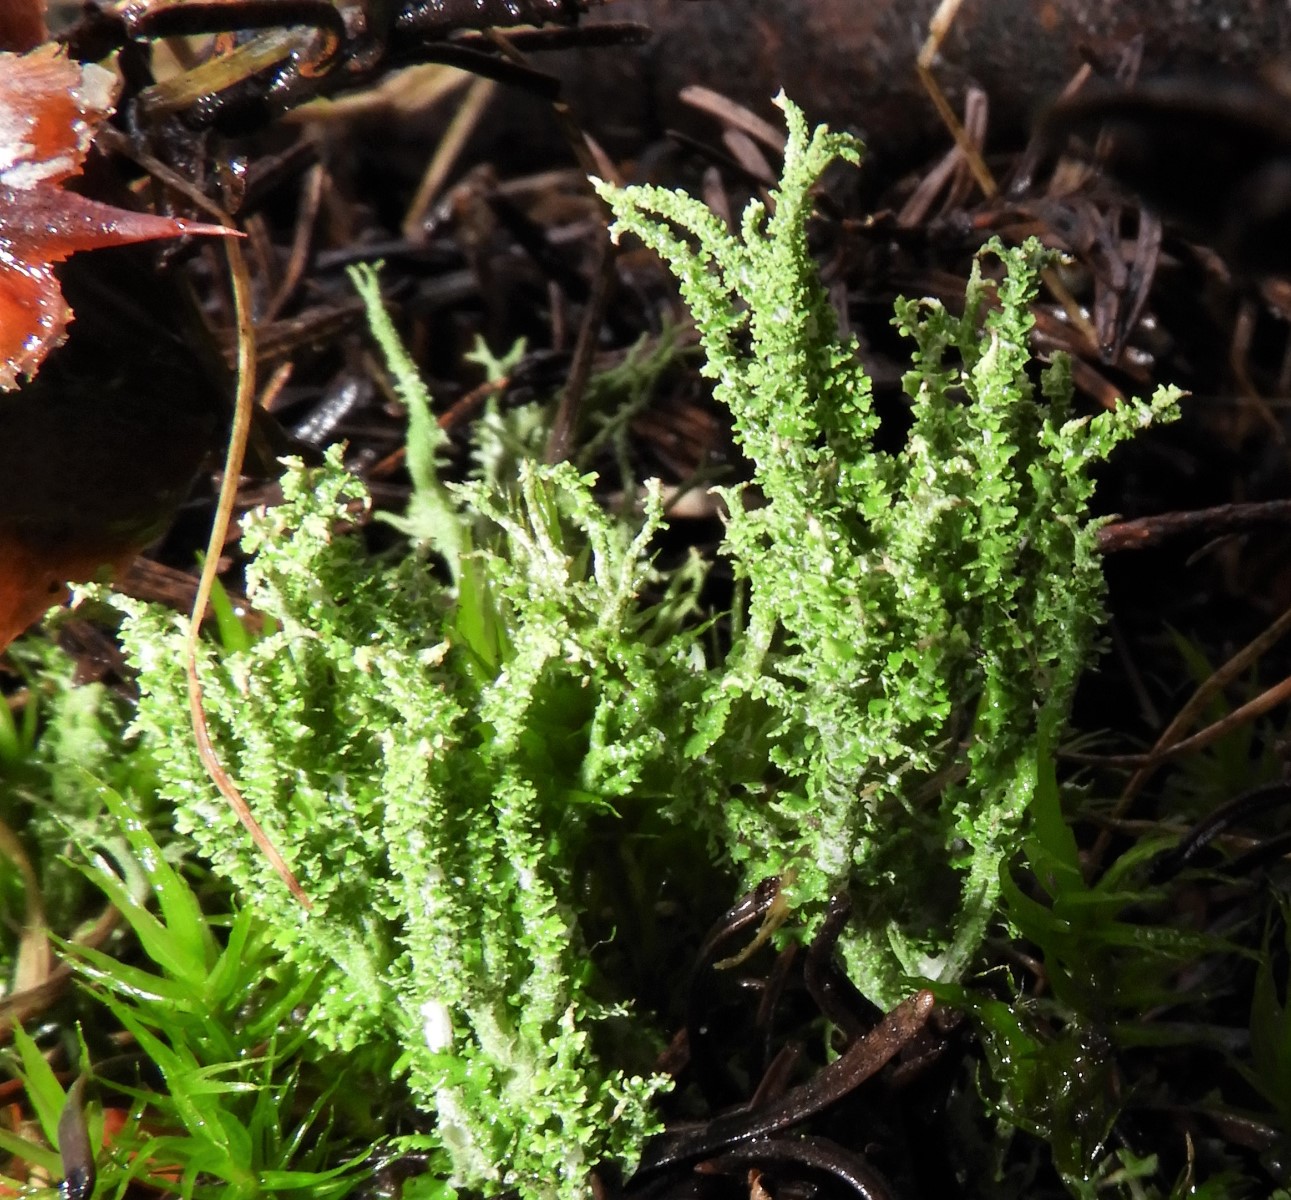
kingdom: Fungi
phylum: Ascomycota
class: Lecanoromycetes
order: Lecanorales
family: Cladoniaceae
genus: Cladonia
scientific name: Cladonia scabriuscula
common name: ru bægerlav
